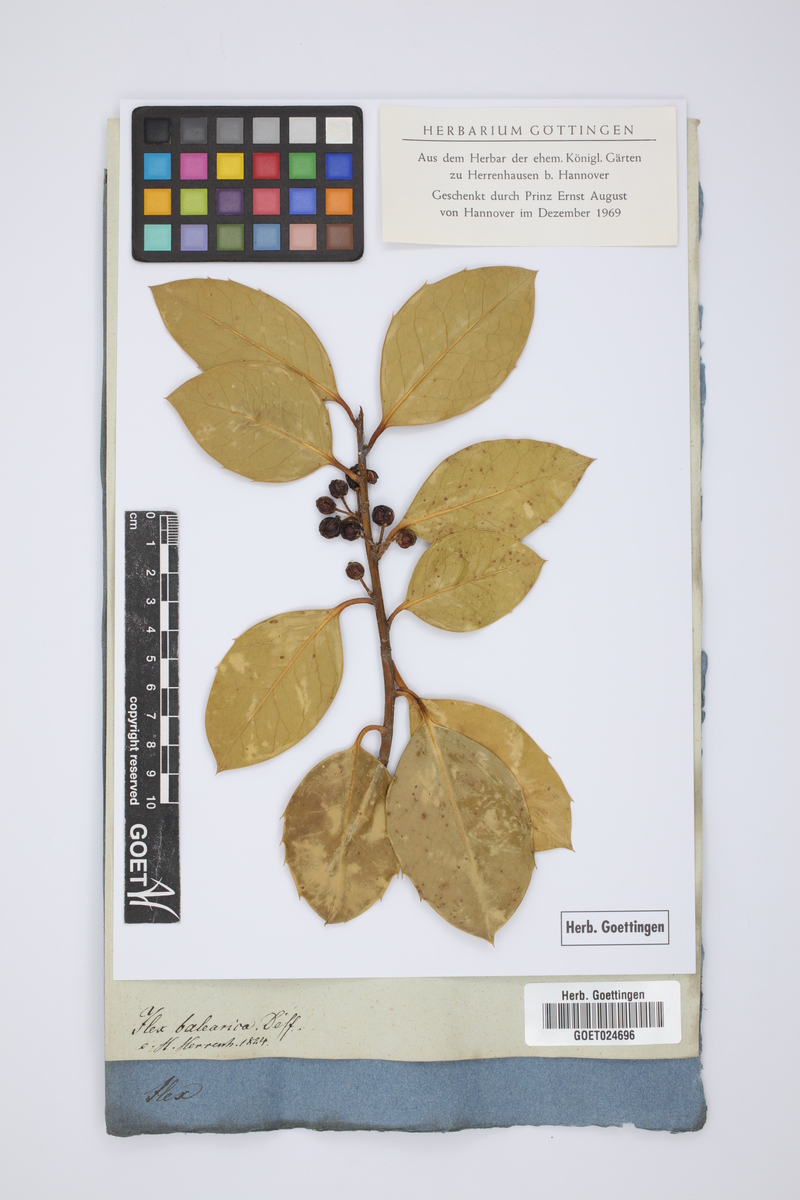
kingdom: Plantae
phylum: Tracheophyta
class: Magnoliopsida
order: Aquifoliales
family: Aquifoliaceae
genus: Ilex
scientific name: Ilex aquifolium
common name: English holly
